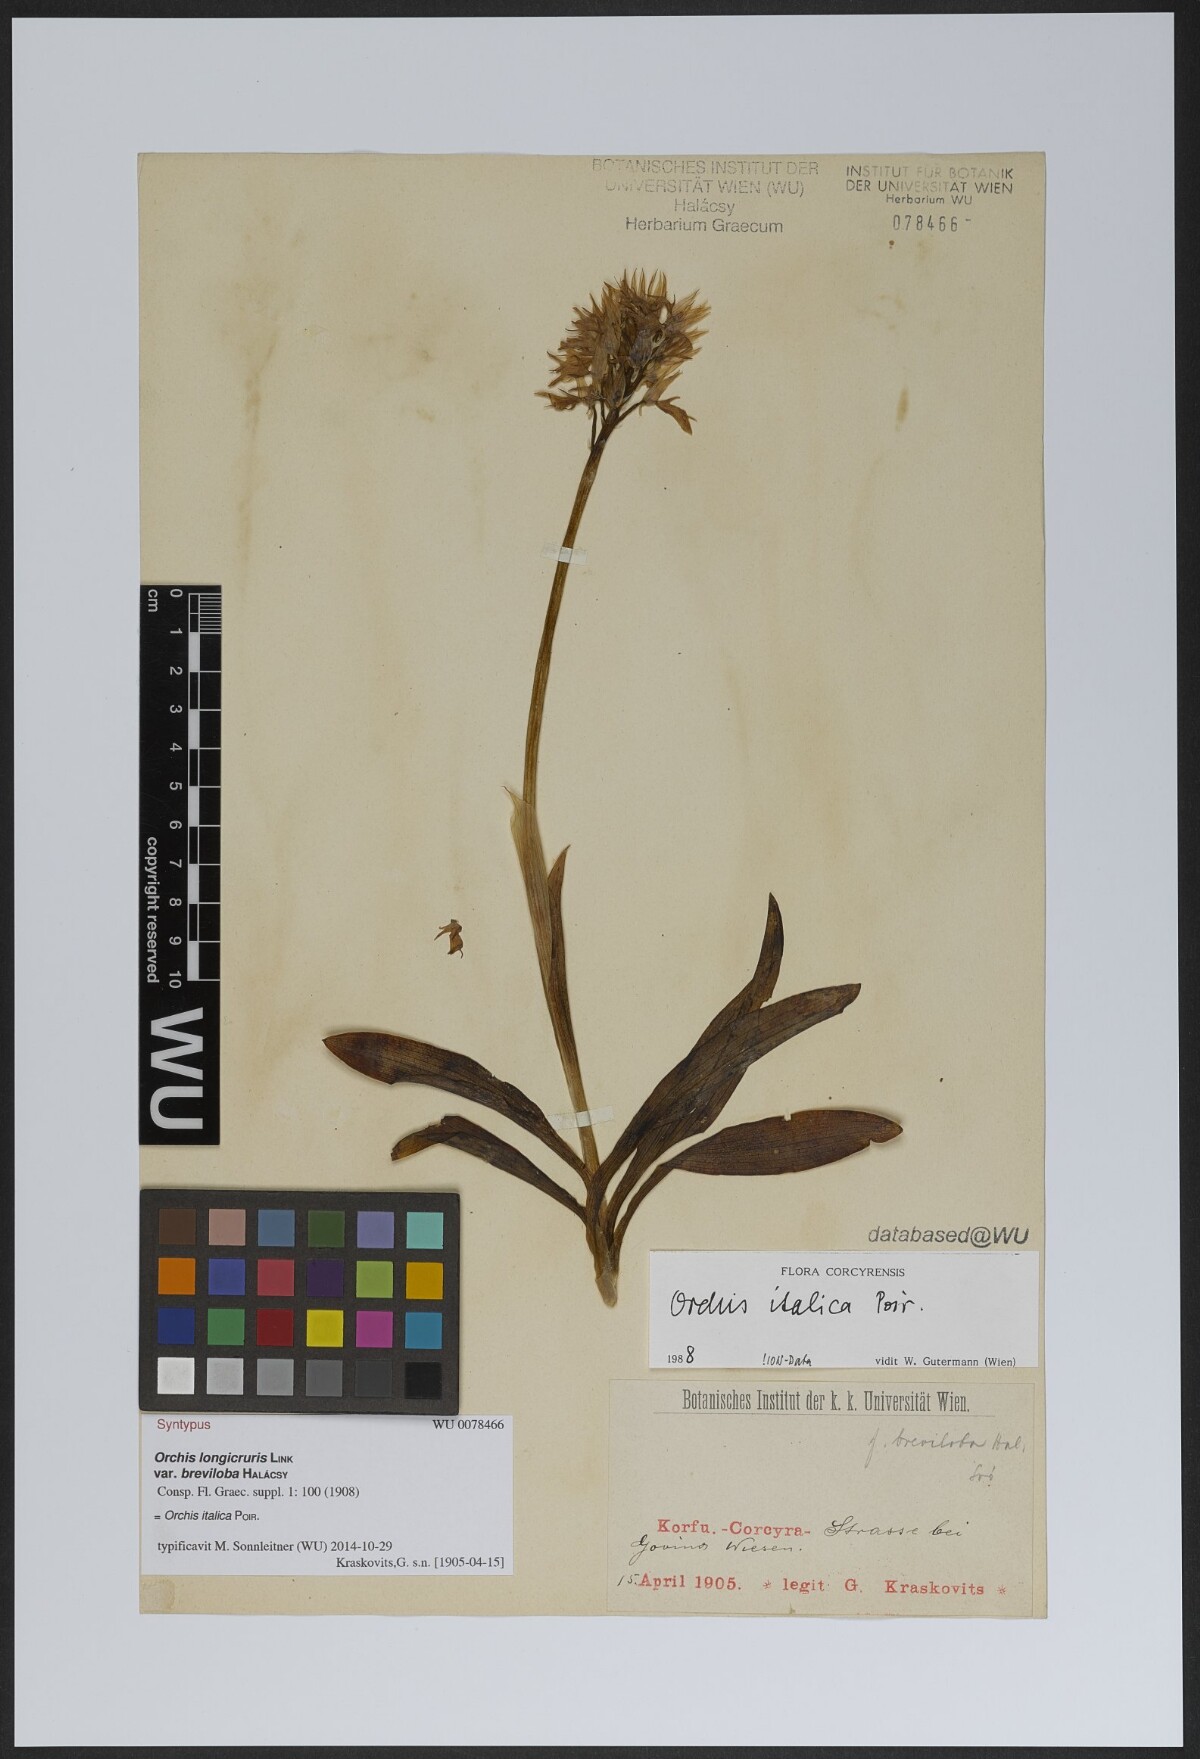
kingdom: Plantae
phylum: Tracheophyta
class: Liliopsida
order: Asparagales
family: Orchidaceae
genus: Orchis
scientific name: Orchis italica
